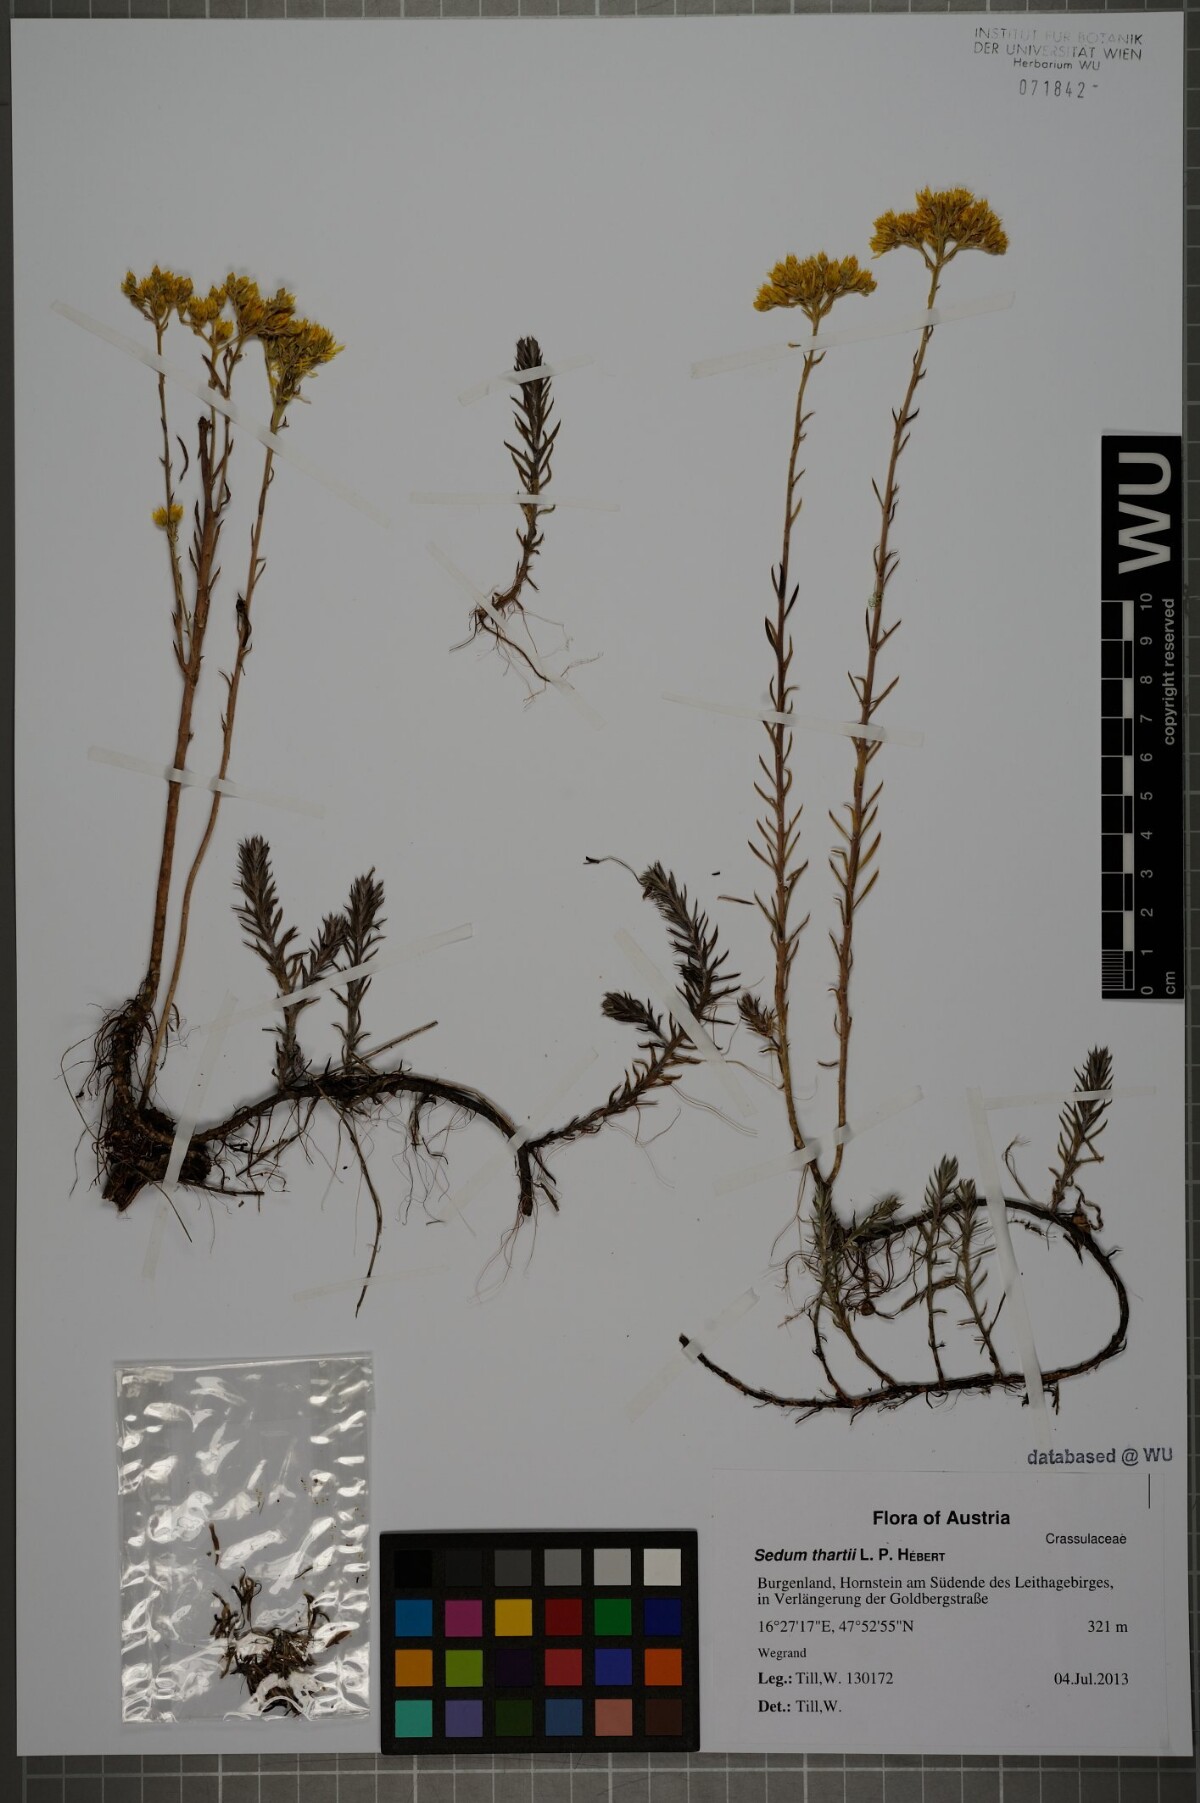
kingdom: Plantae
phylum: Tracheophyta
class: Magnoliopsida
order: Saxifragales
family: Crassulaceae
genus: Petrosedum
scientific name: Petrosedum orientale
